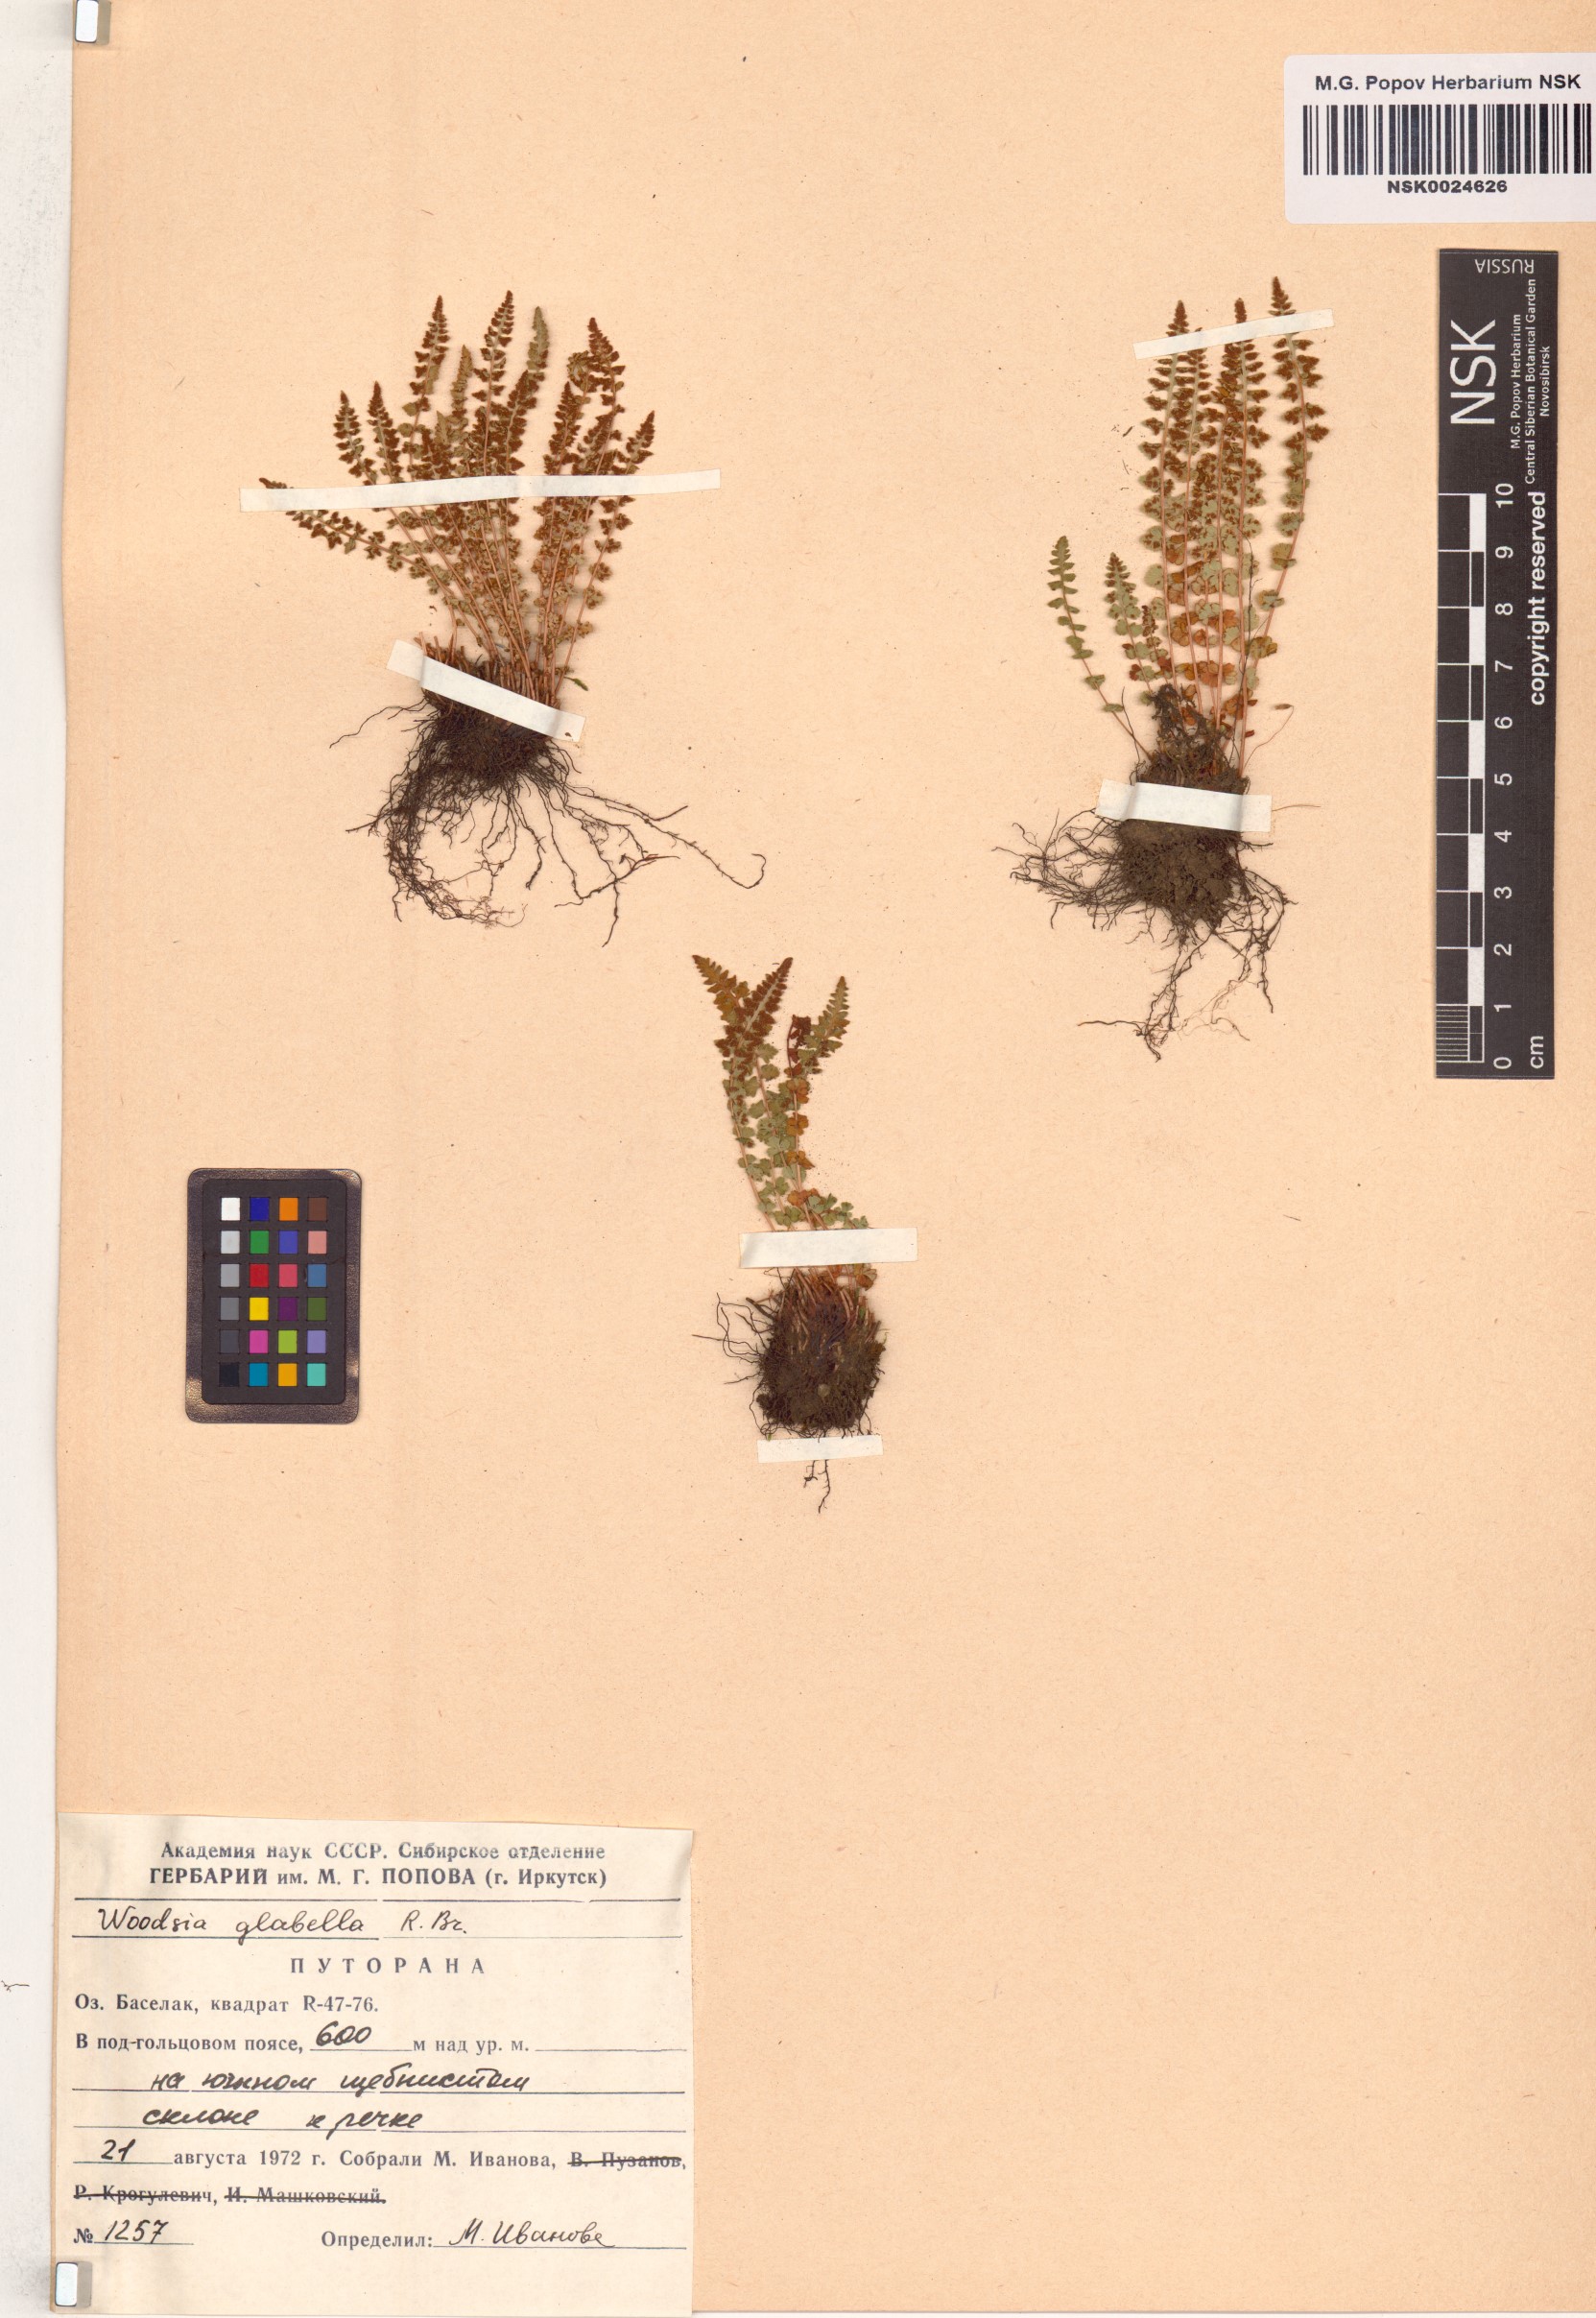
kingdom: Plantae
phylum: Tracheophyta
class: Polypodiopsida
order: Polypodiales
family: Woodsiaceae
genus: Woodsia
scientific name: Woodsia glabella
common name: Smooth woodsia
